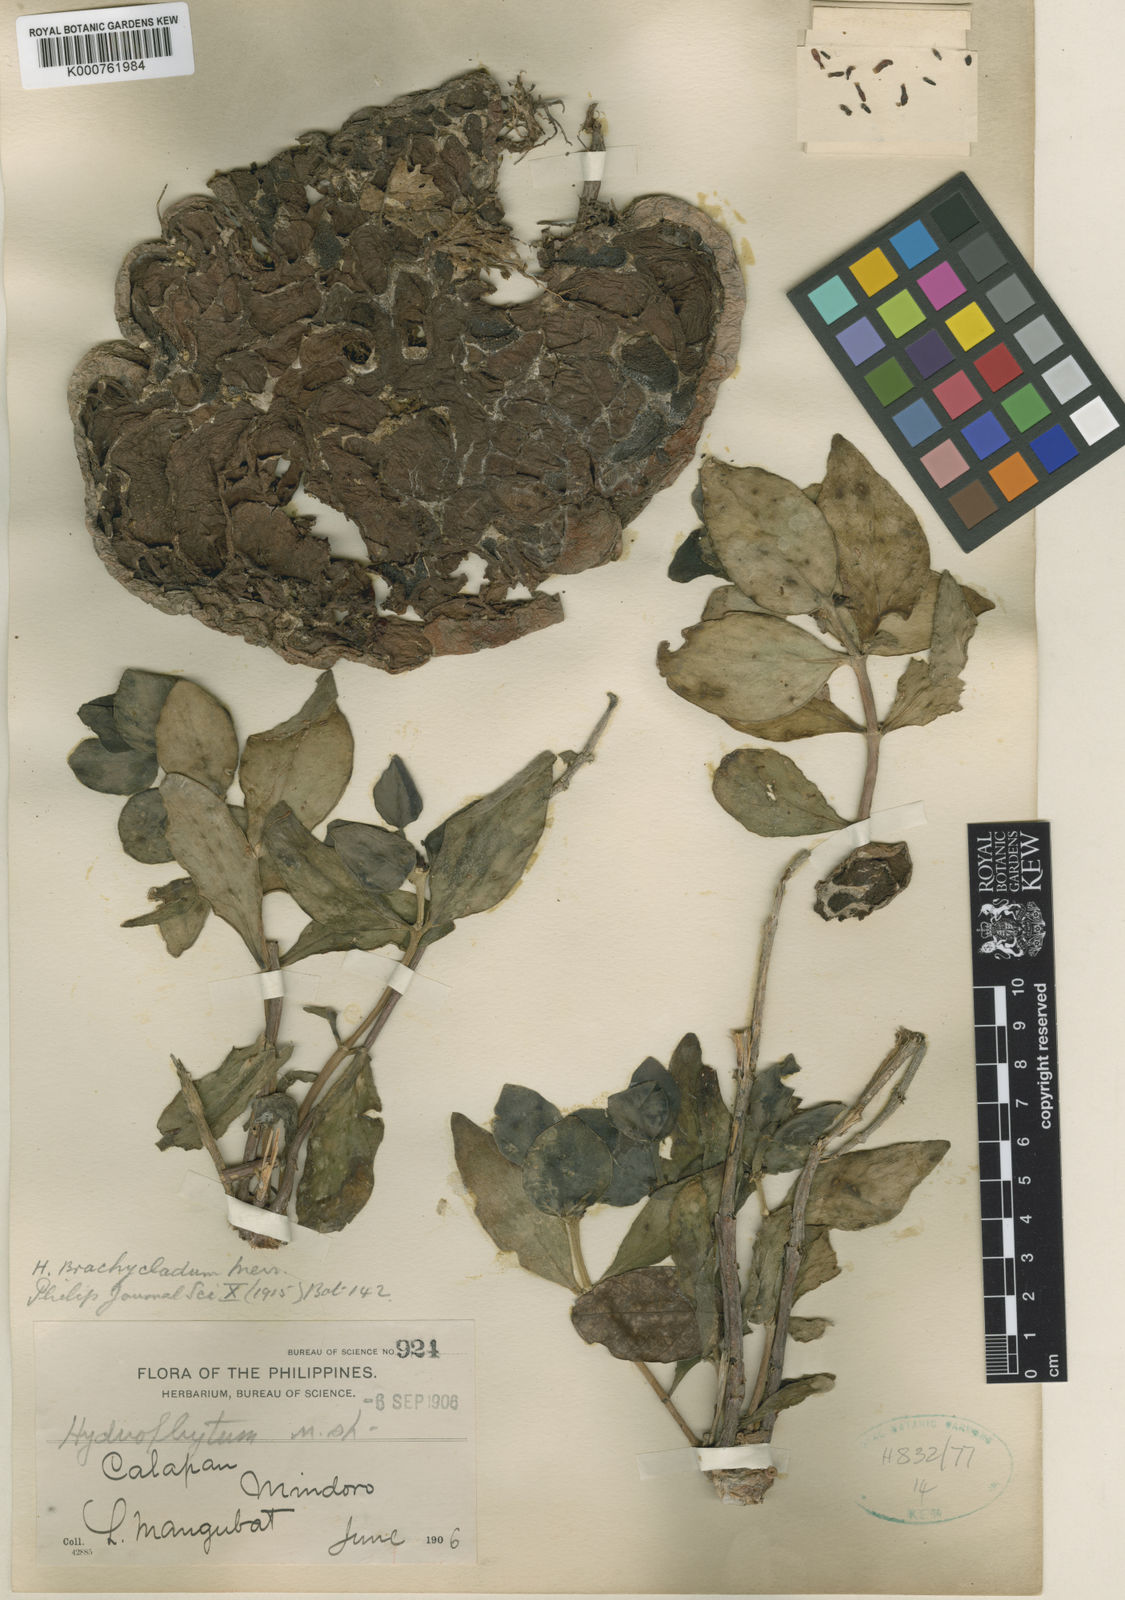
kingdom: Plantae
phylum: Tracheophyta
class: Magnoliopsida
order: Gentianales
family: Rubiaceae
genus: Hydnophytum
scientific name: Hydnophytum moseleyanum
